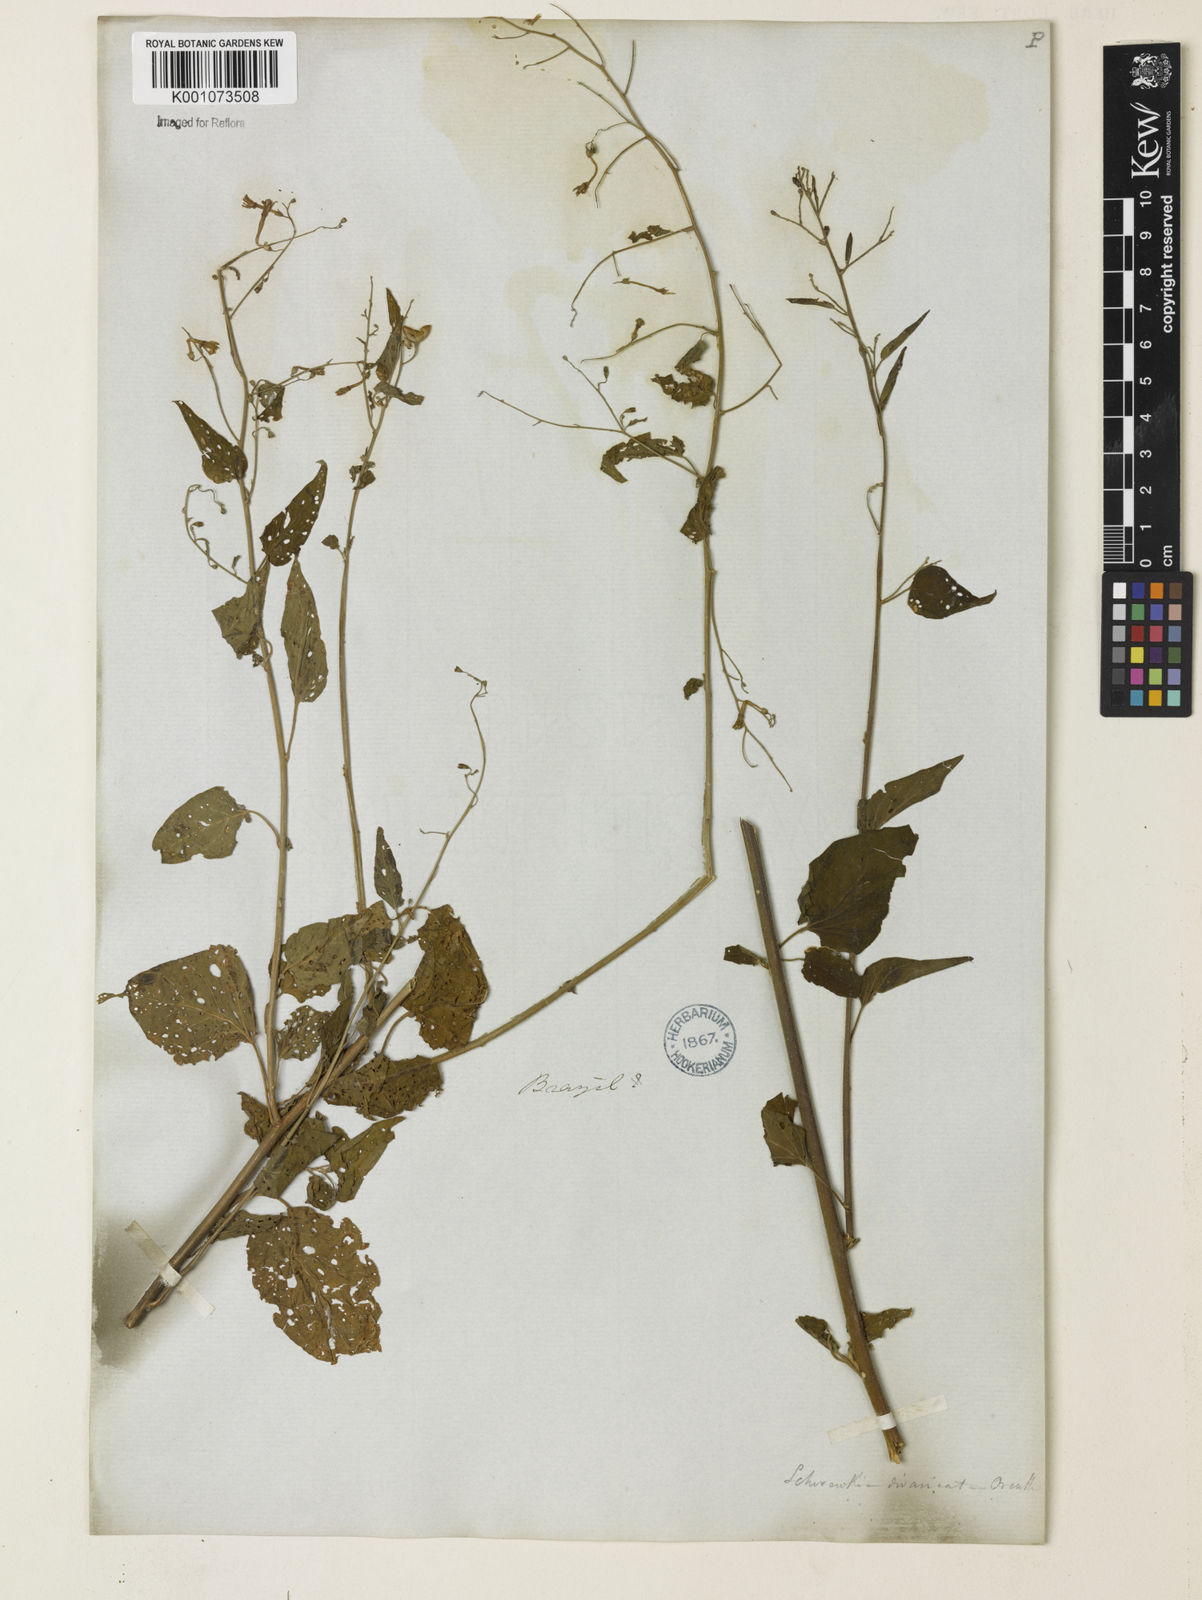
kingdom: Plantae
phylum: Tracheophyta
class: Magnoliopsida
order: Solanales
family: Solanaceae
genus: Schwenckia
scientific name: Schwenckia paniculata
